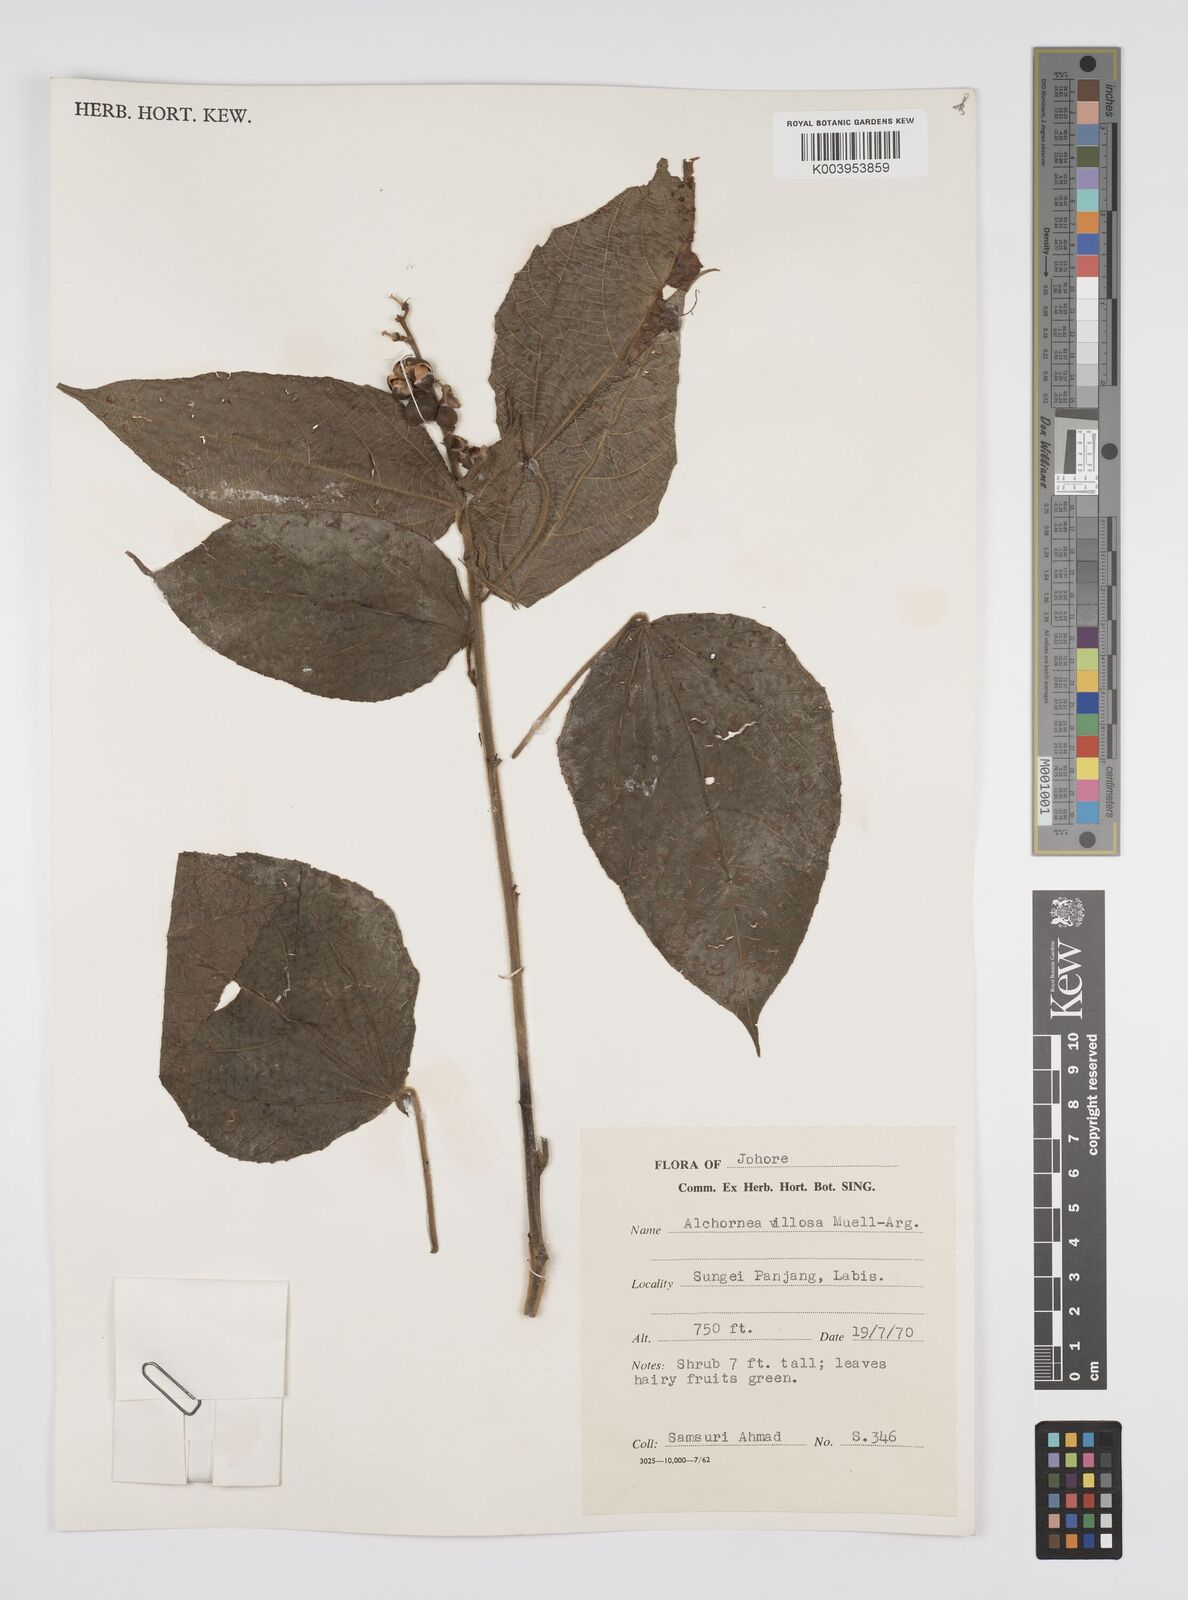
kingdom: Plantae
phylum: Tracheophyta
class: Magnoliopsida
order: Malpighiales
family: Euphorbiaceae
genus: Alchornea
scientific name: Alchornea tiliifolia
